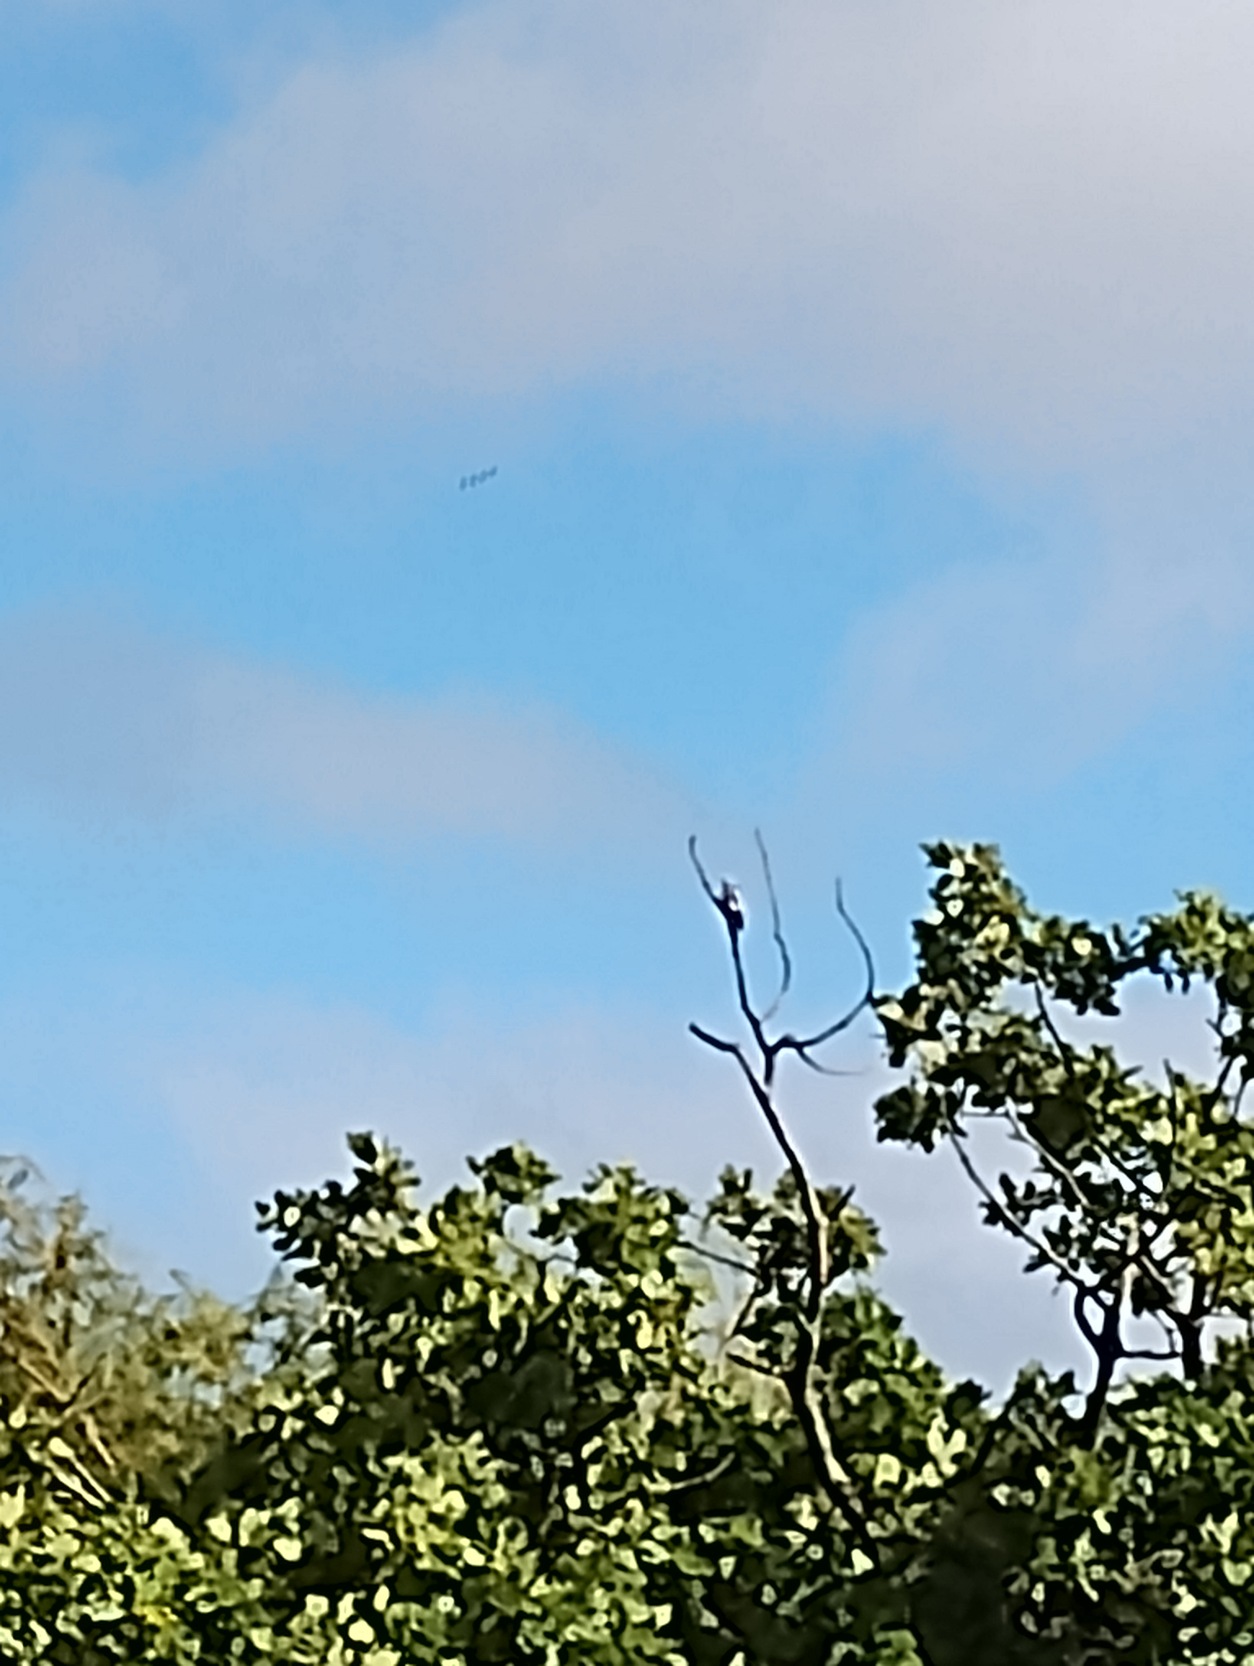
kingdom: Animalia
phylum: Chordata
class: Aves
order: Piciformes
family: Picidae
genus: Dendrocopos
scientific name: Dendrocopos major
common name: Stor flagspætte
